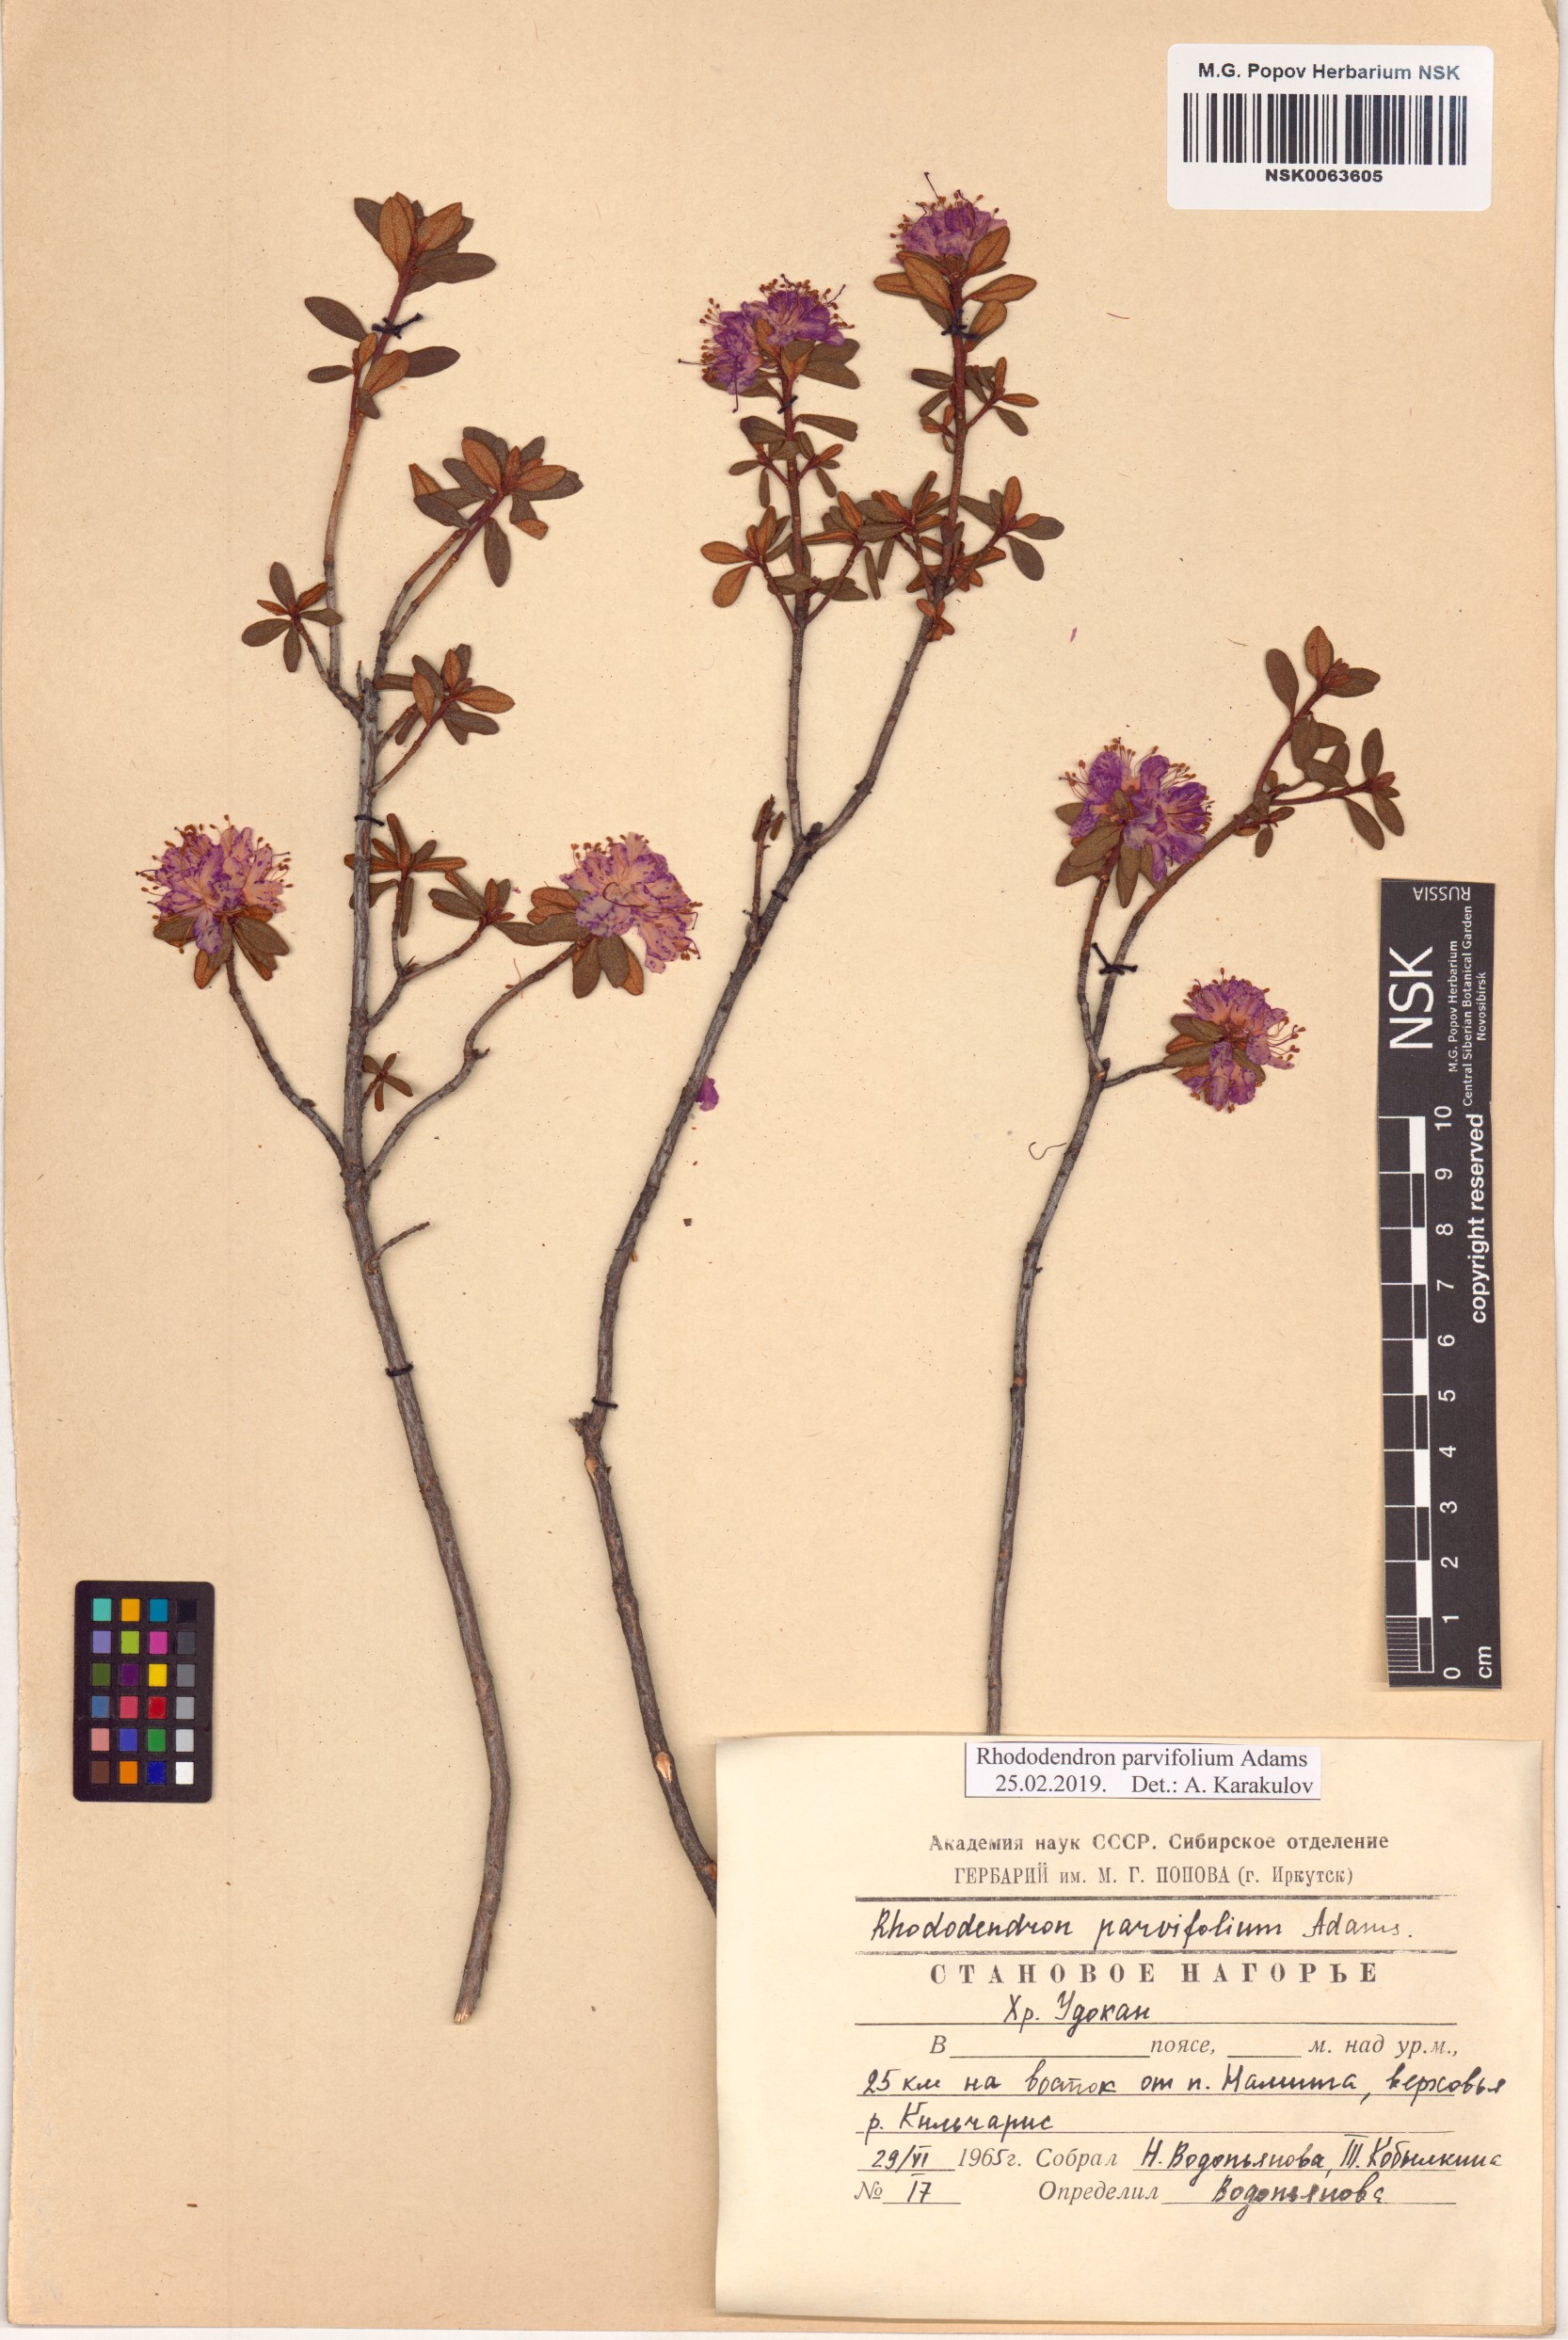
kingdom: Plantae
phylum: Tracheophyta
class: Magnoliopsida
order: Ericales
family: Ericaceae
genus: Rhododendron
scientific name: Rhododendron parvifolium
